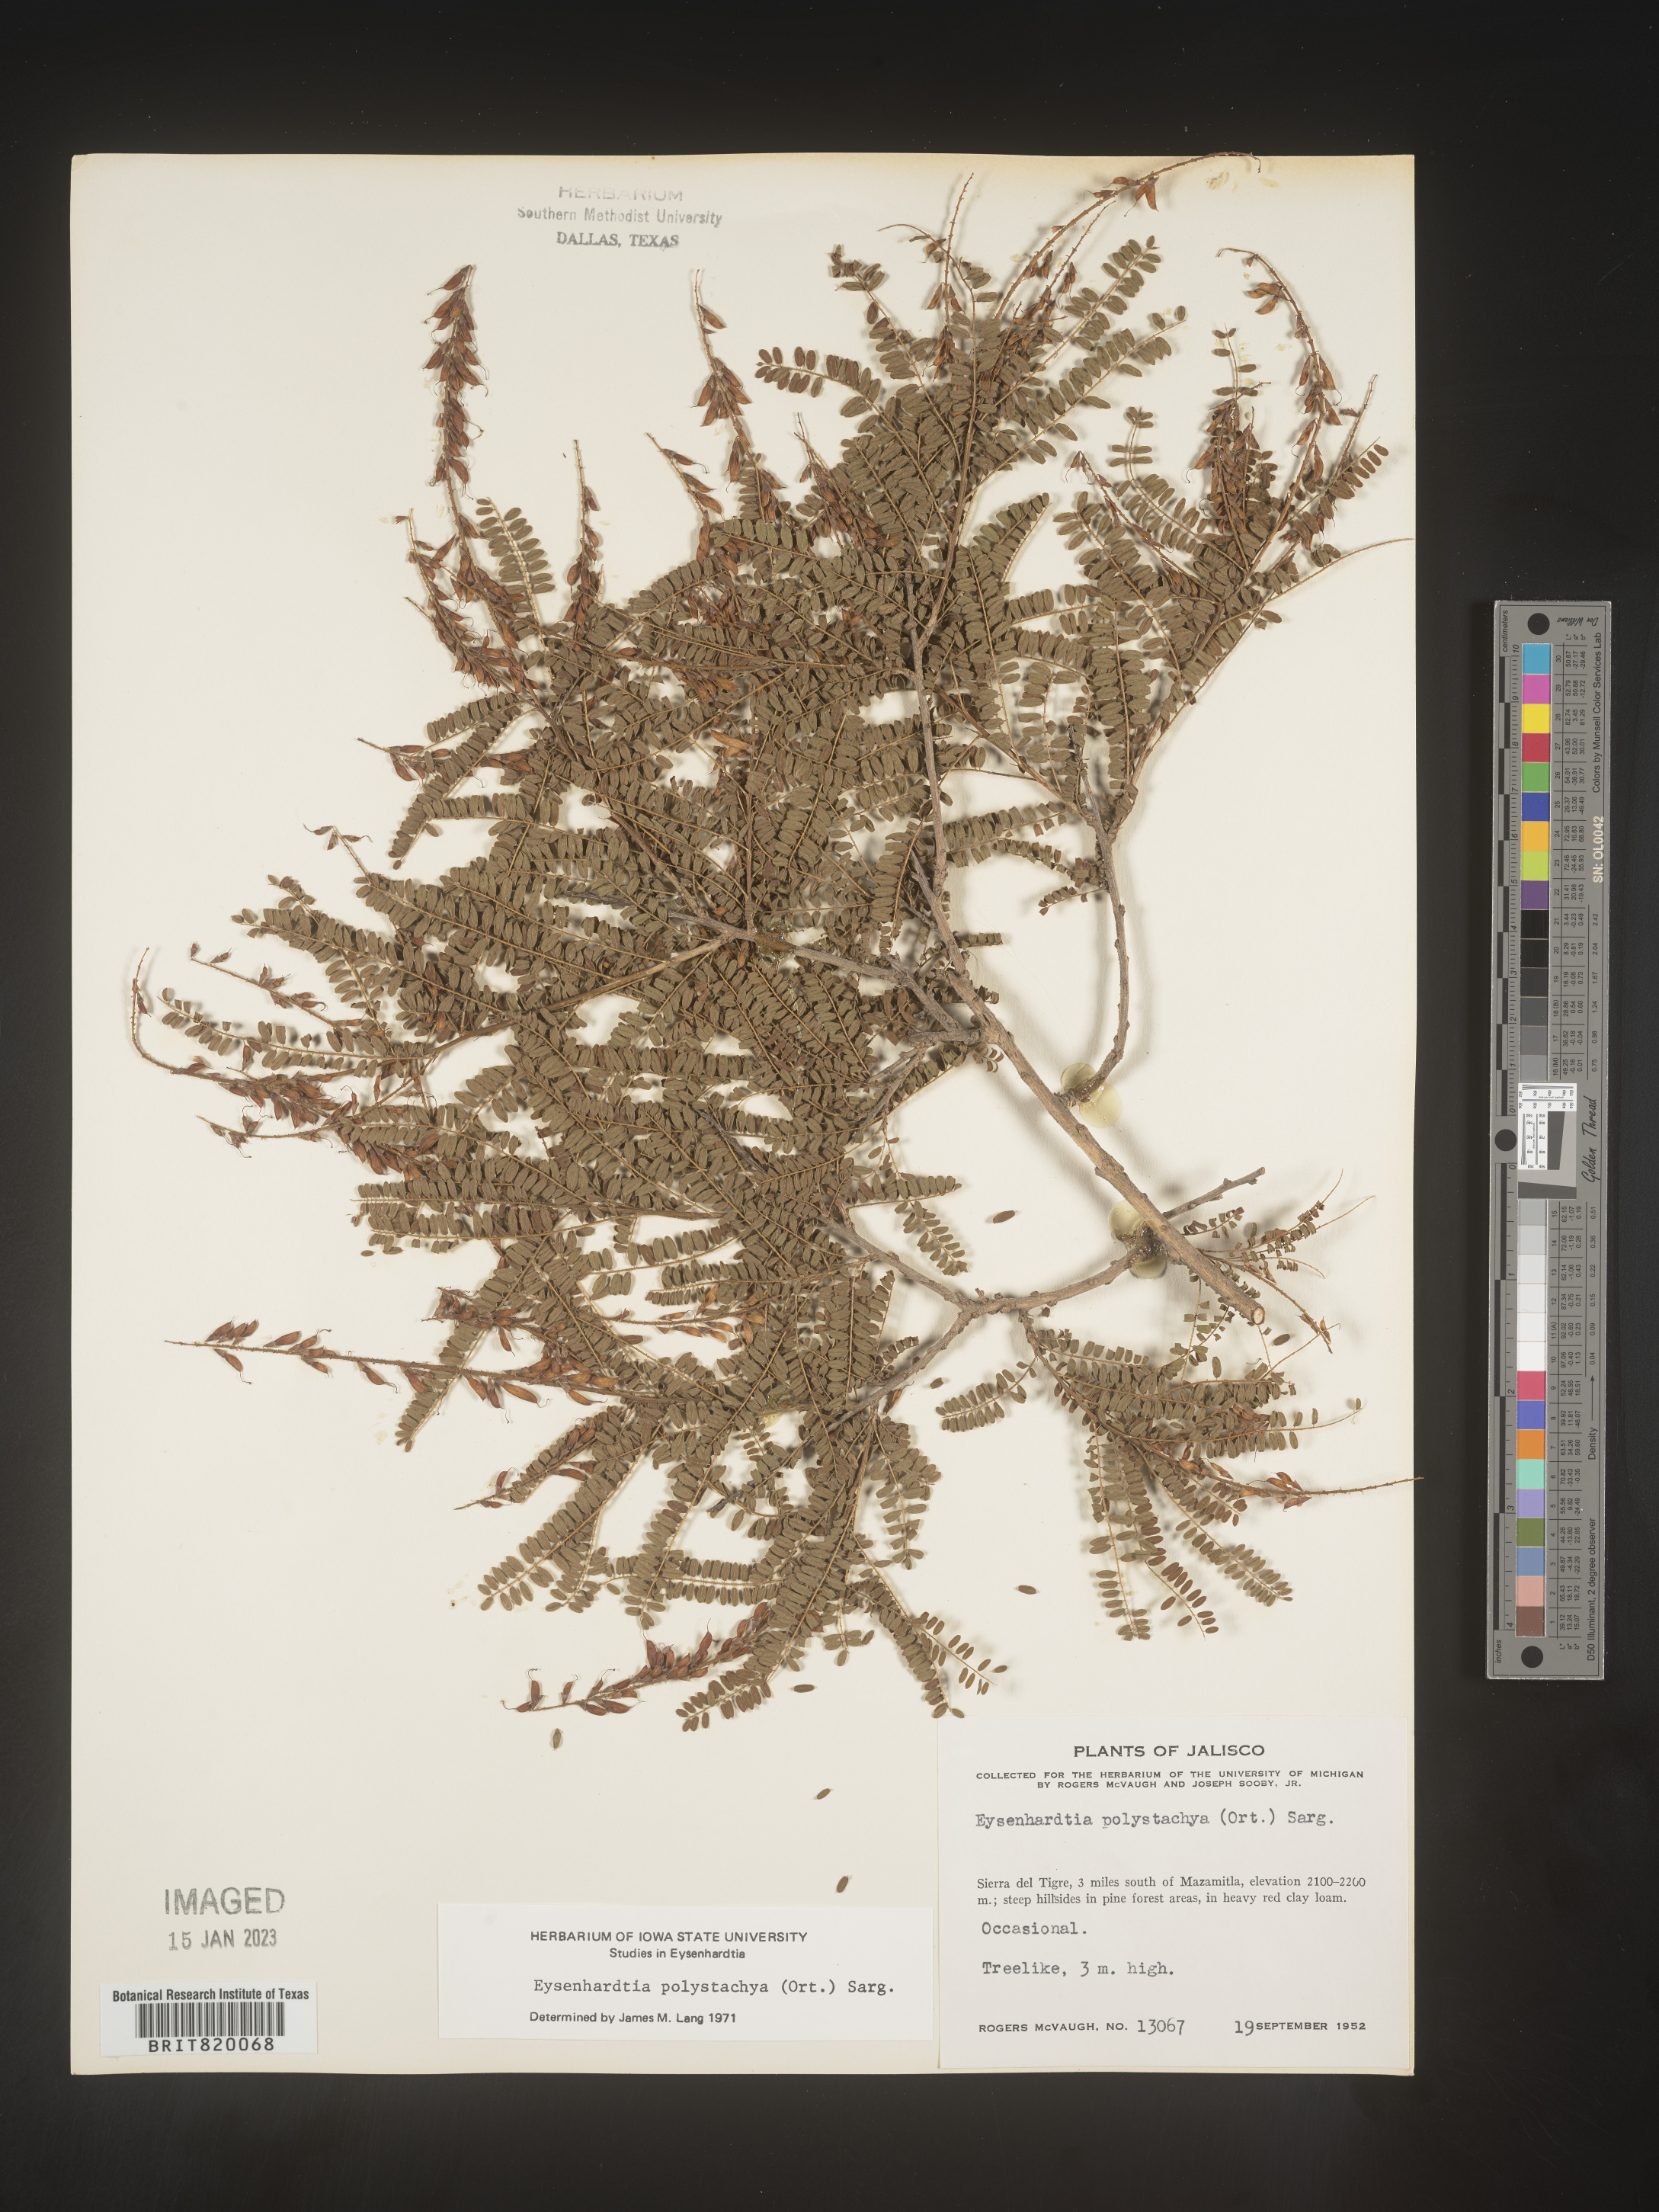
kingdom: Plantae
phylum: Tracheophyta
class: Magnoliopsida
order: Fabales
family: Fabaceae
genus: Eysenhardtia
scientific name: Eysenhardtia
